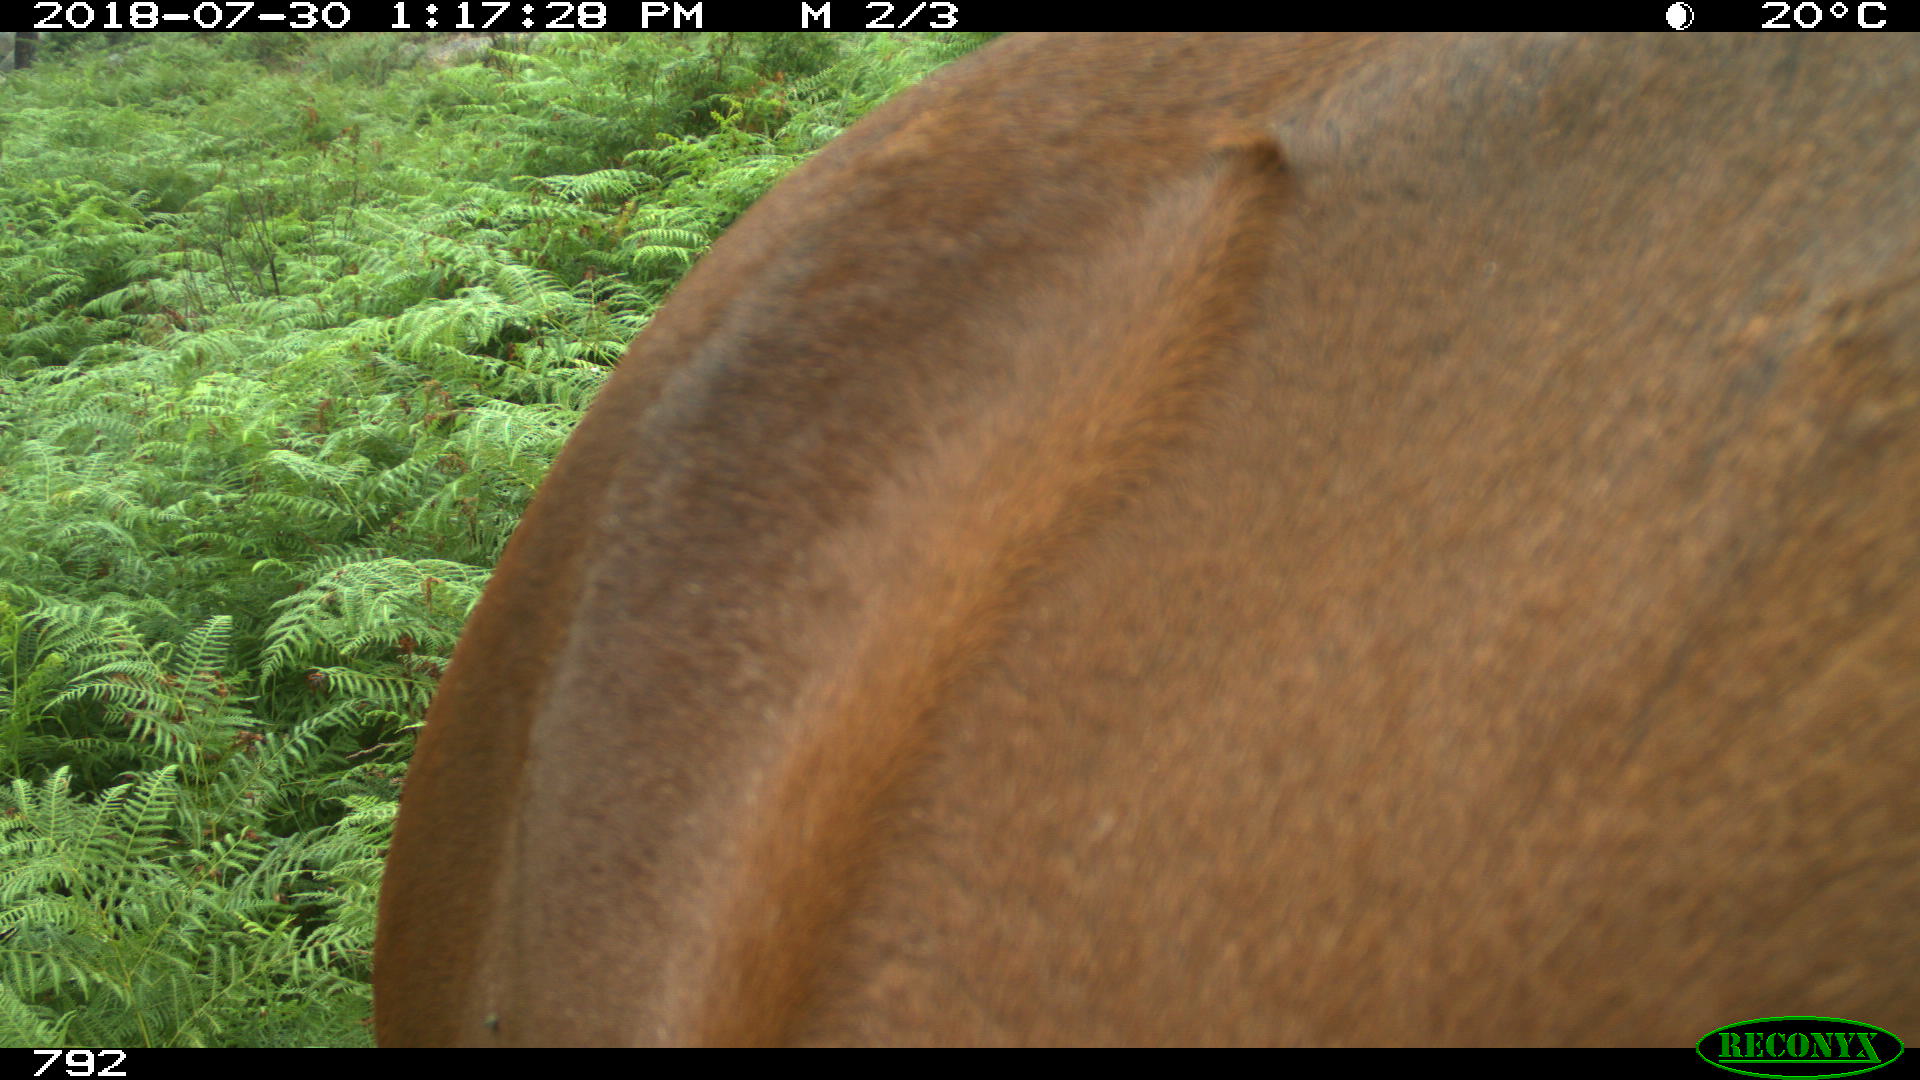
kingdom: Animalia
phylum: Chordata
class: Mammalia
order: Perissodactyla
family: Equidae
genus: Equus
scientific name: Equus caballus
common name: Horse
